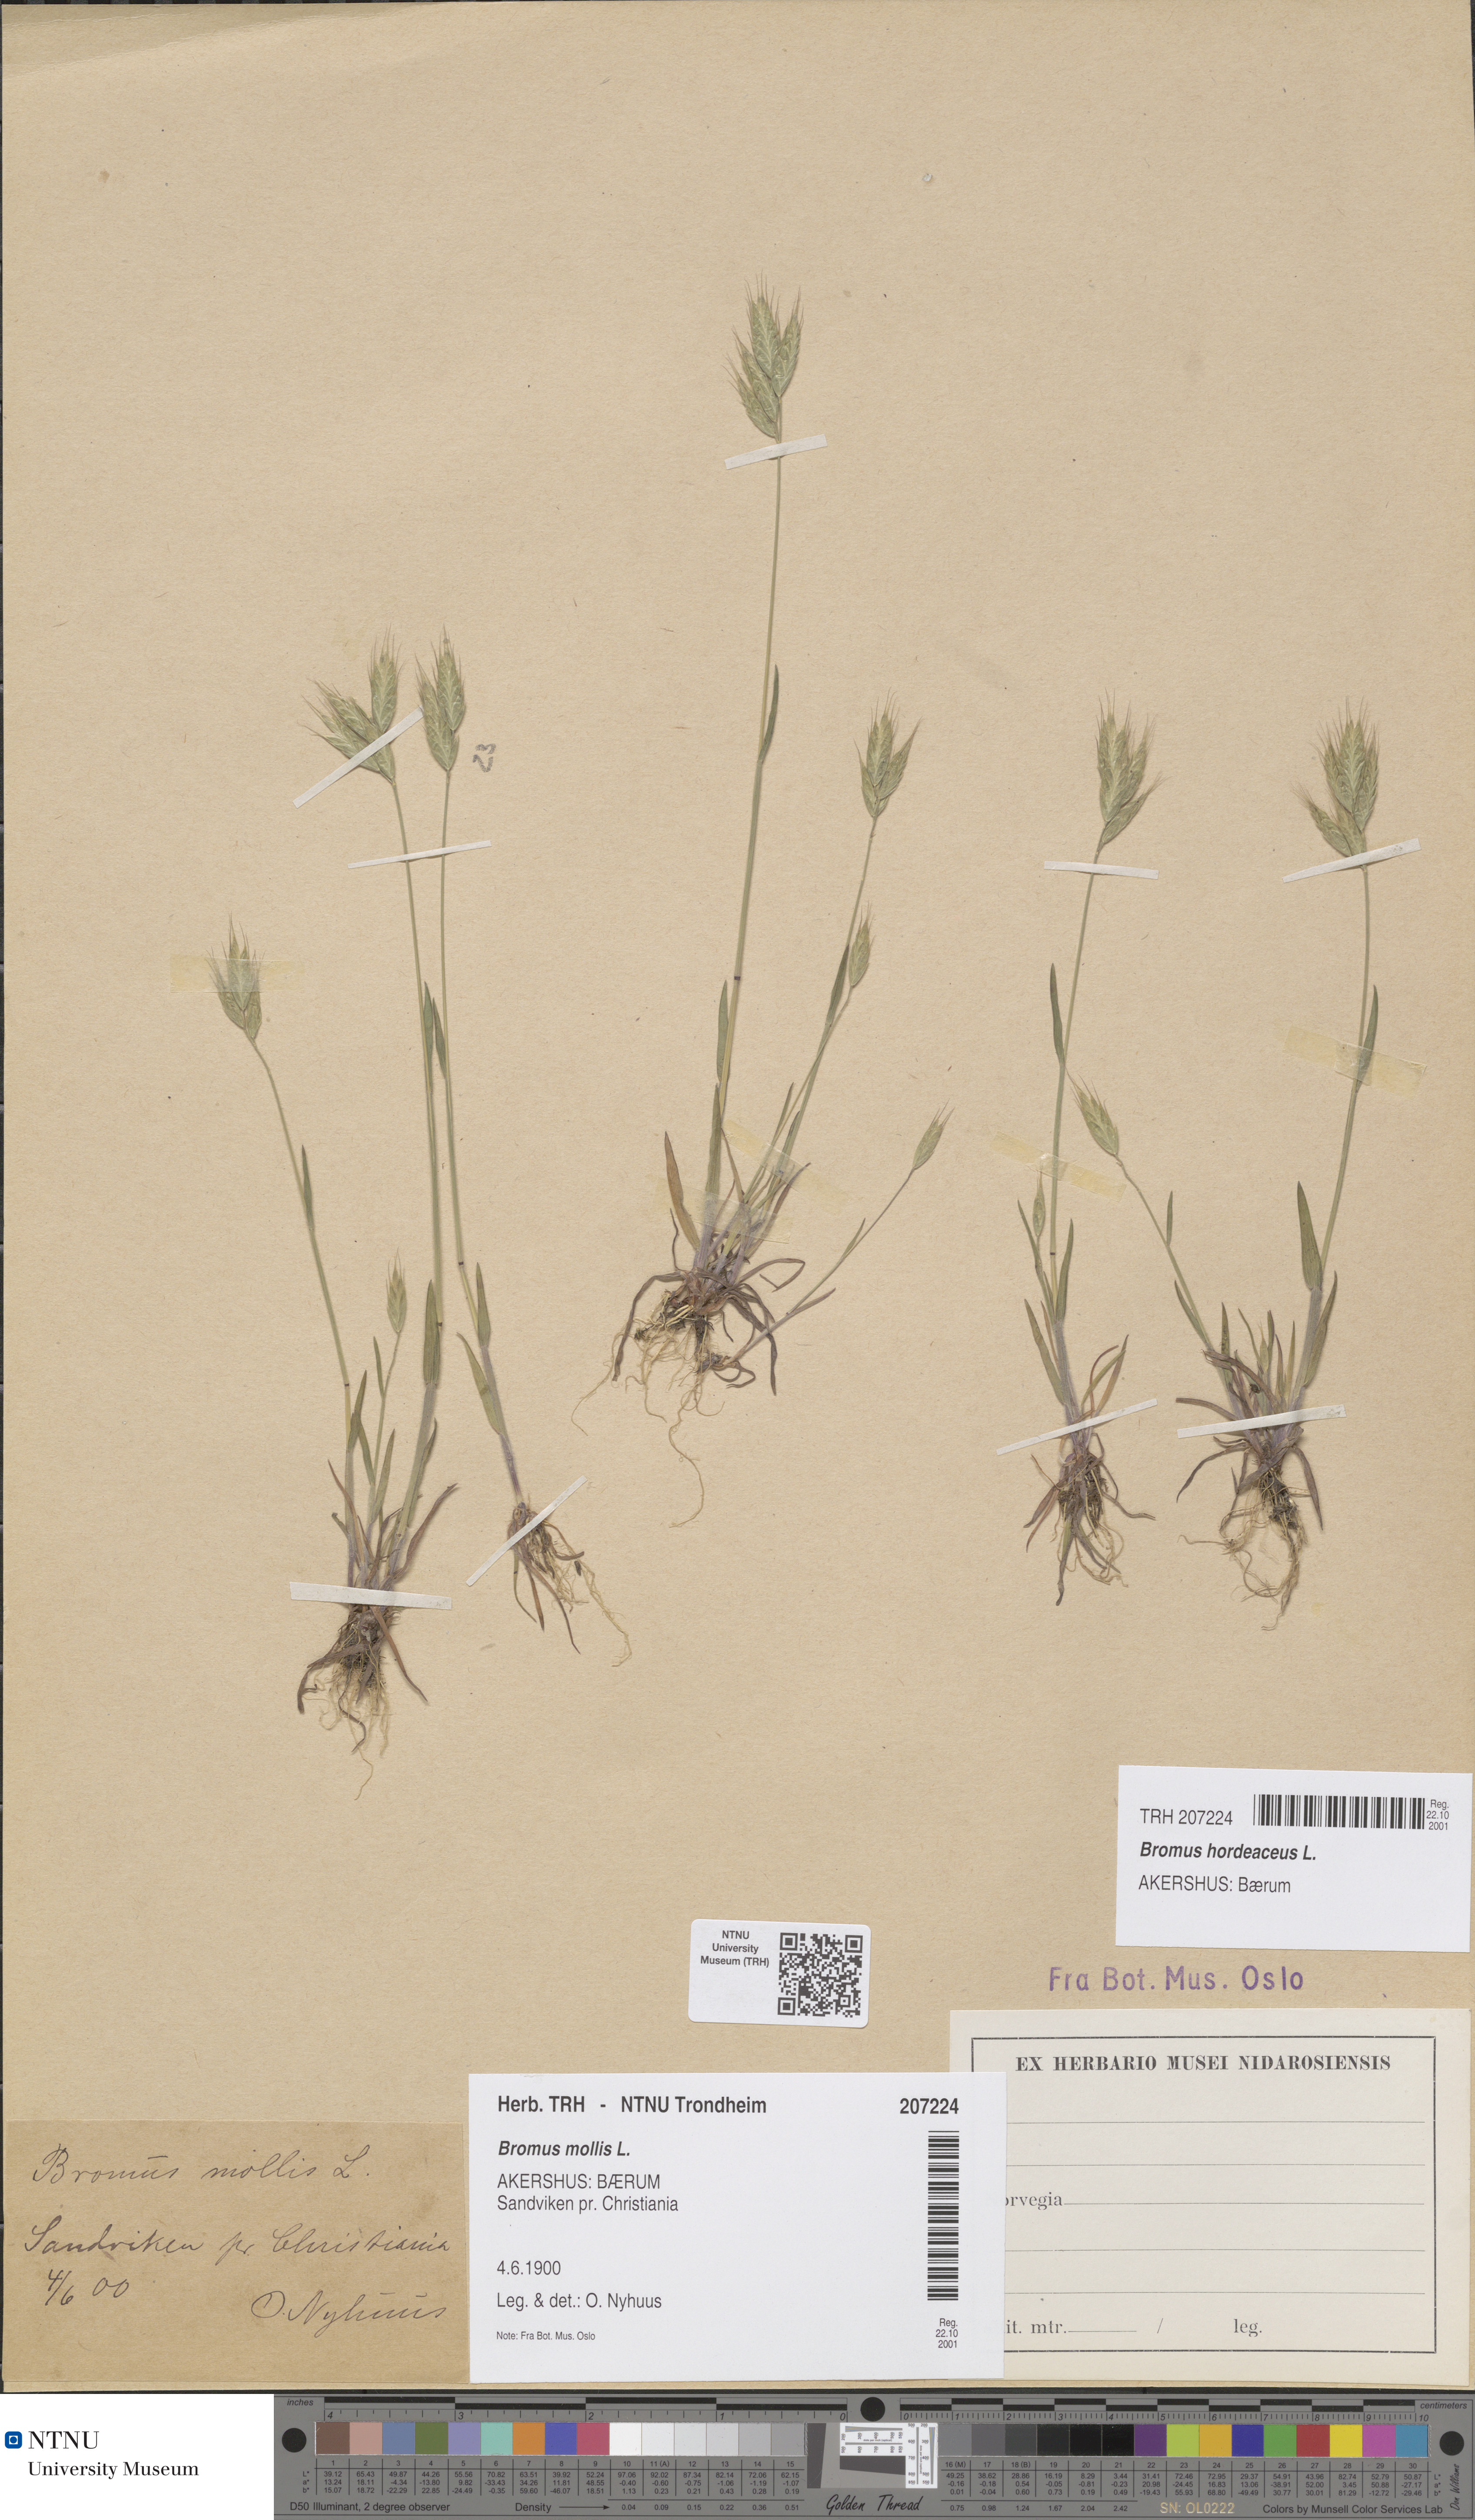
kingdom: Plantae
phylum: Tracheophyta
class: Liliopsida
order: Poales
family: Poaceae
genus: Bromus
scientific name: Bromus hordeaceus
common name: Soft brome
